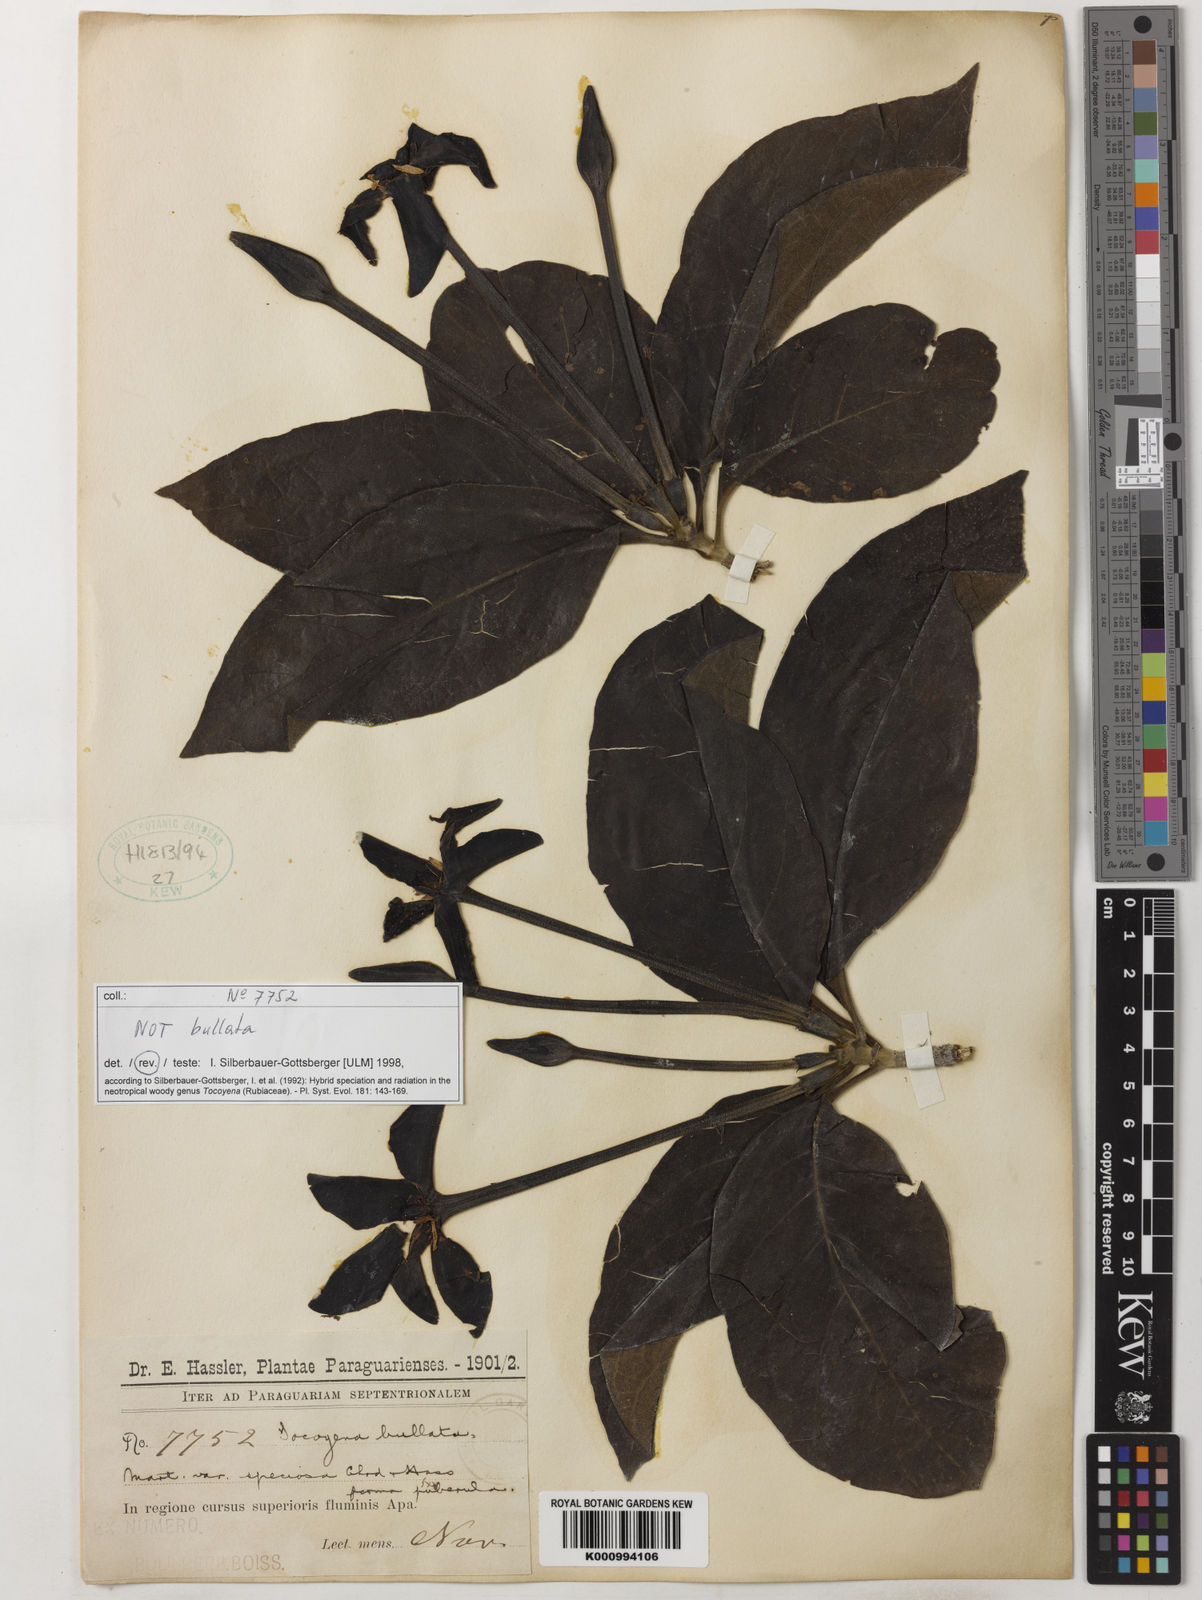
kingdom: Plantae
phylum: Tracheophyta
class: Magnoliopsida
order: Gentianales
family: Rubiaceae
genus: Tocoyena
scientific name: Tocoyena formosa
